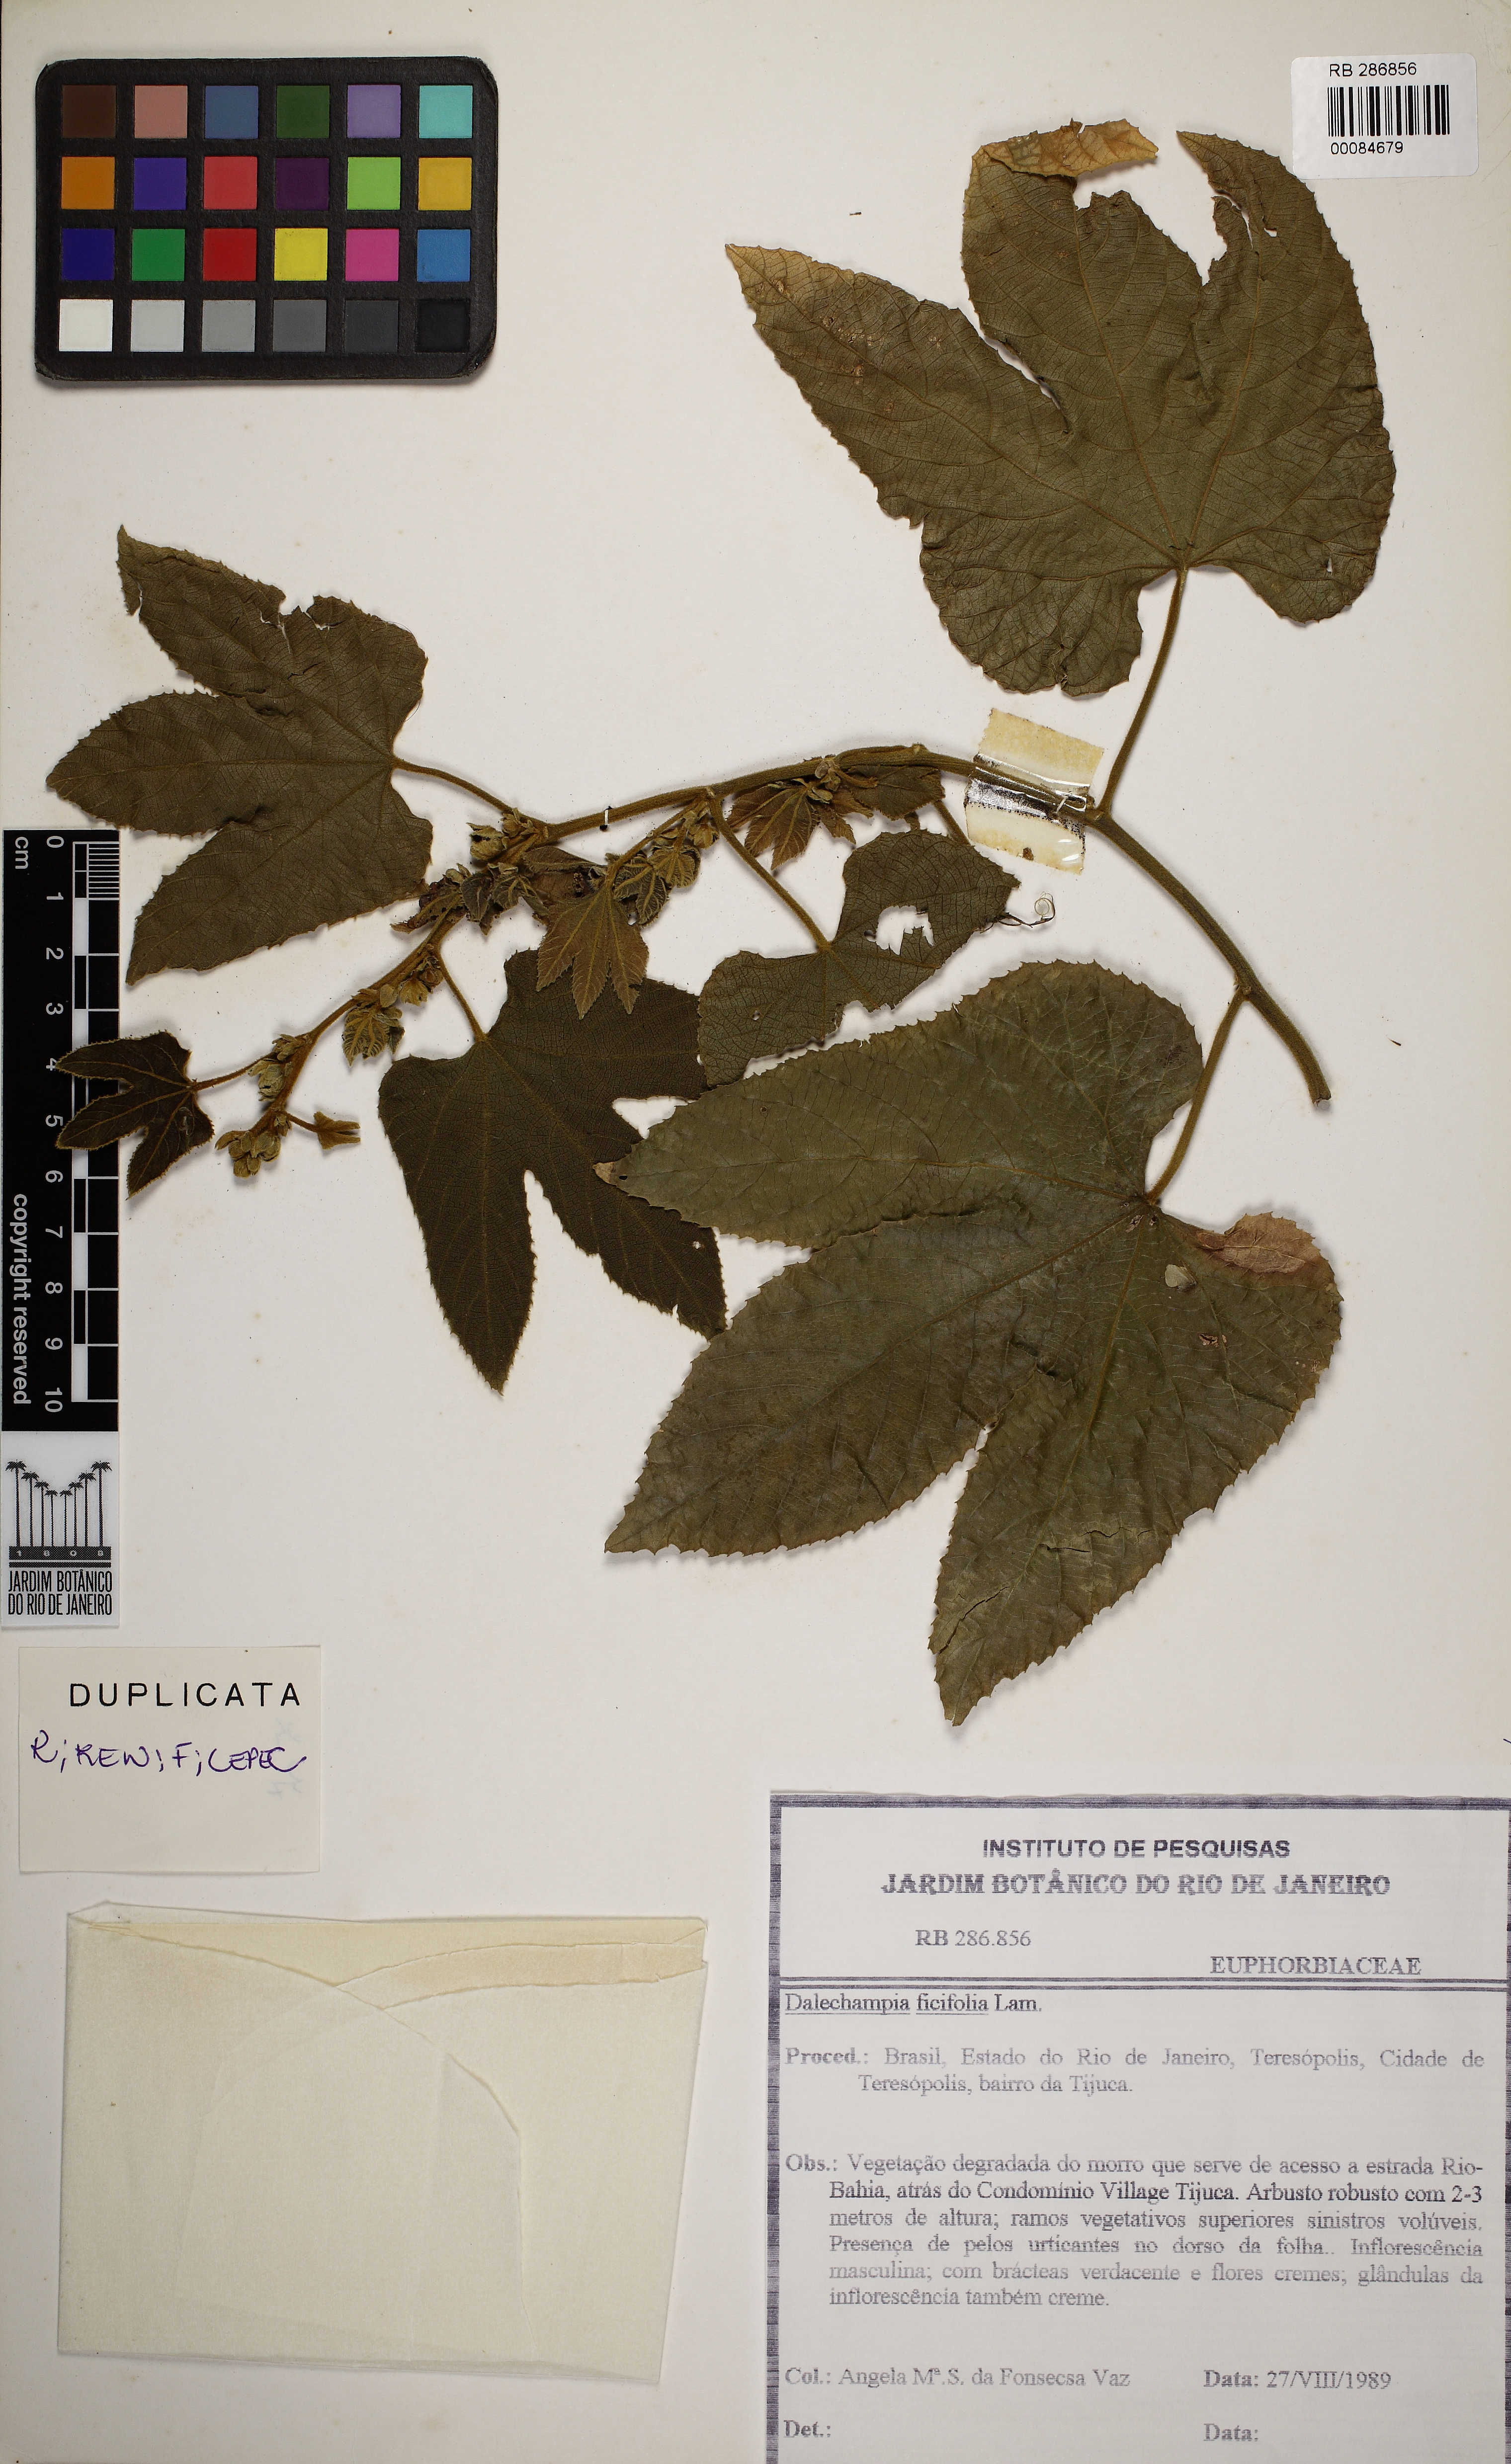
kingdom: Plantae
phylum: Tracheophyta
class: Magnoliopsida
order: Malpighiales
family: Euphorbiaceae
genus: Dalechampia
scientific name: Dalechampia ficifolia
